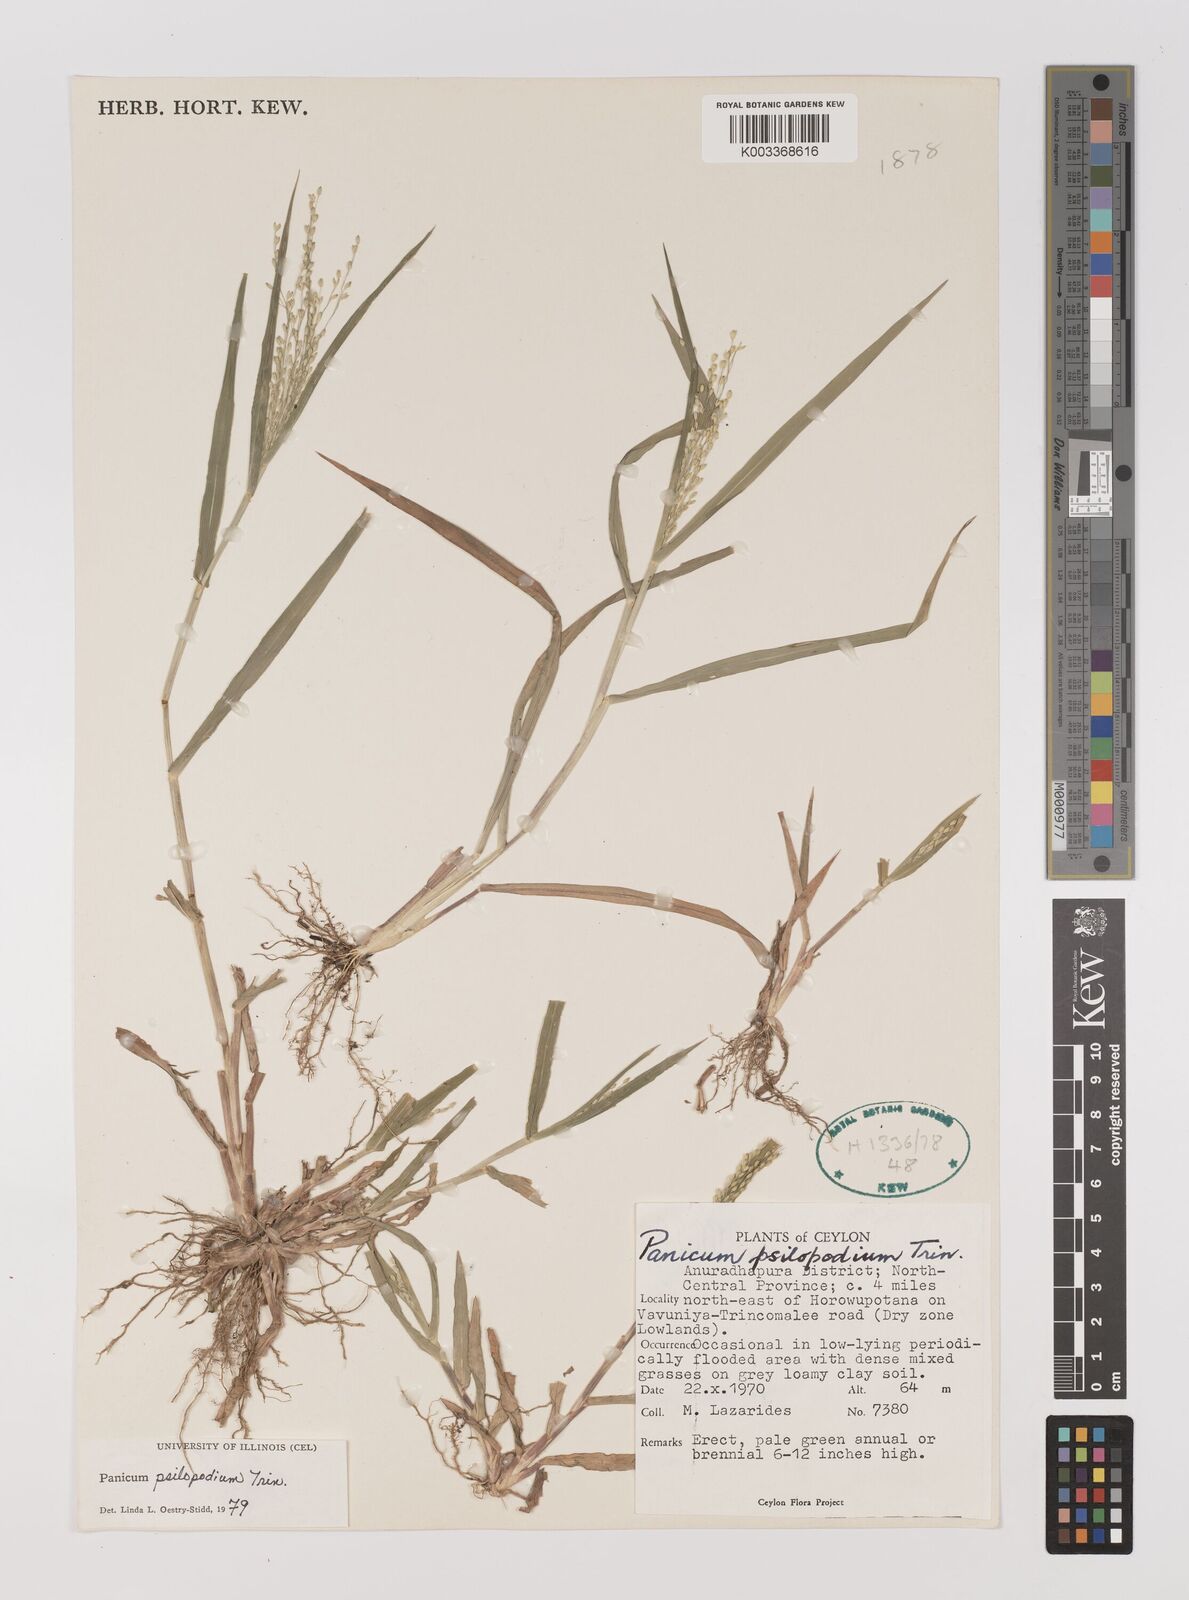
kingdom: Plantae
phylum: Tracheophyta
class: Liliopsida
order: Poales
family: Poaceae
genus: Panicum
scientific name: Panicum sumatrense
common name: Little millet
